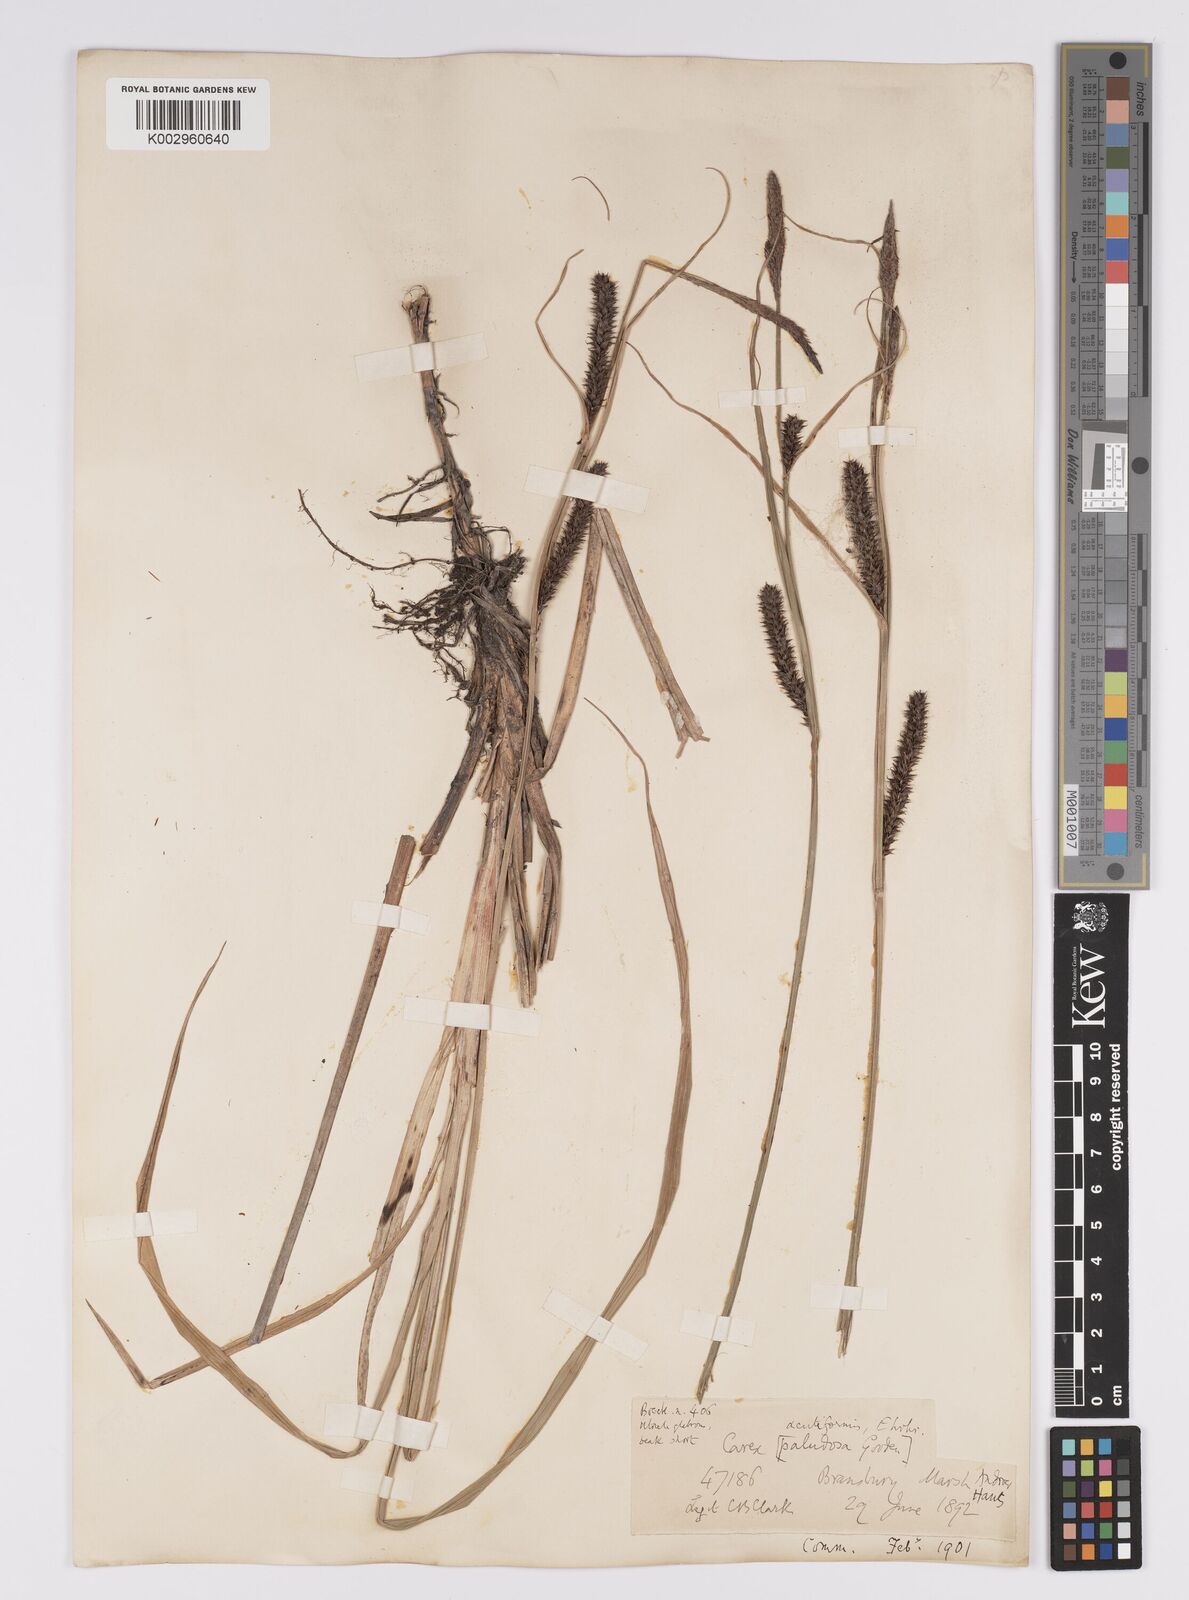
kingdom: Plantae
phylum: Tracheophyta
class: Liliopsida
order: Poales
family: Cyperaceae
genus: Carex
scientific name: Carex acutiformis
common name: Lesser pond-sedge
